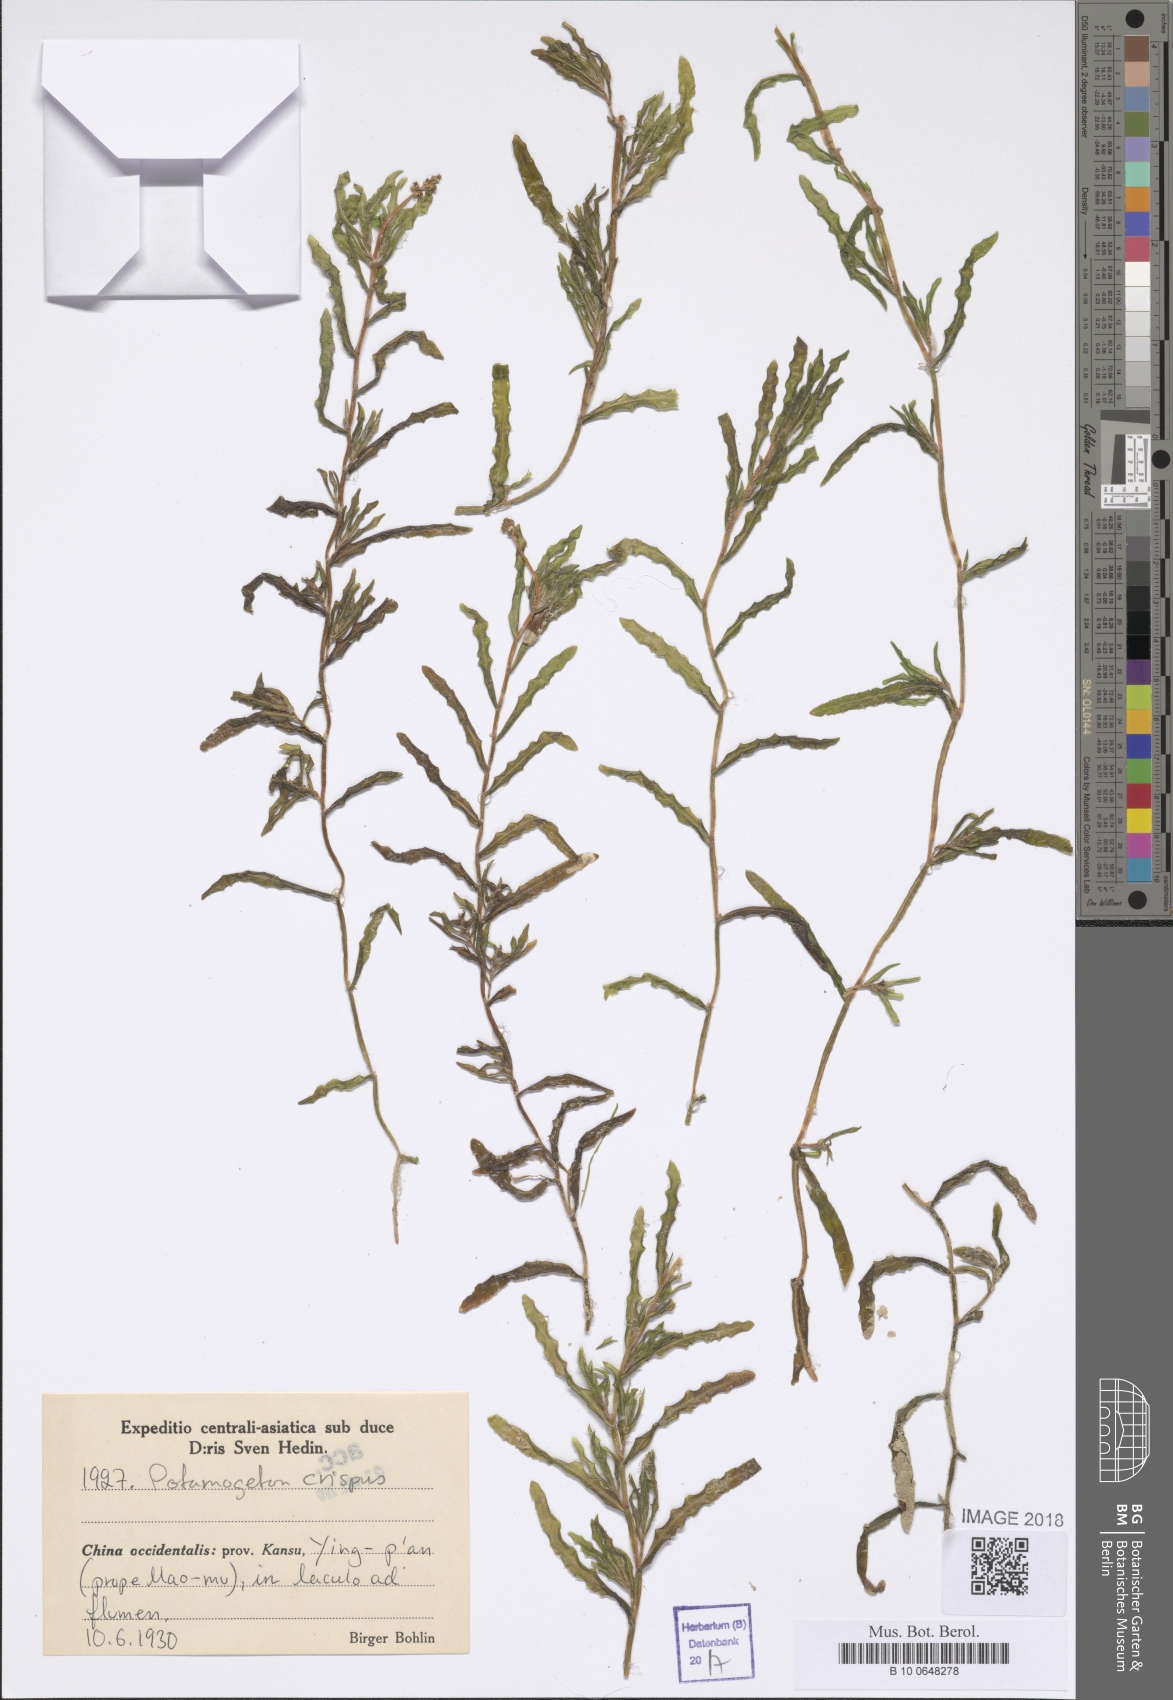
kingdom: Plantae
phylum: Tracheophyta
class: Liliopsida
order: Alismatales
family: Potamogetonaceae
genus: Potamogeton
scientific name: Potamogeton crispus
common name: Curled pondweed
